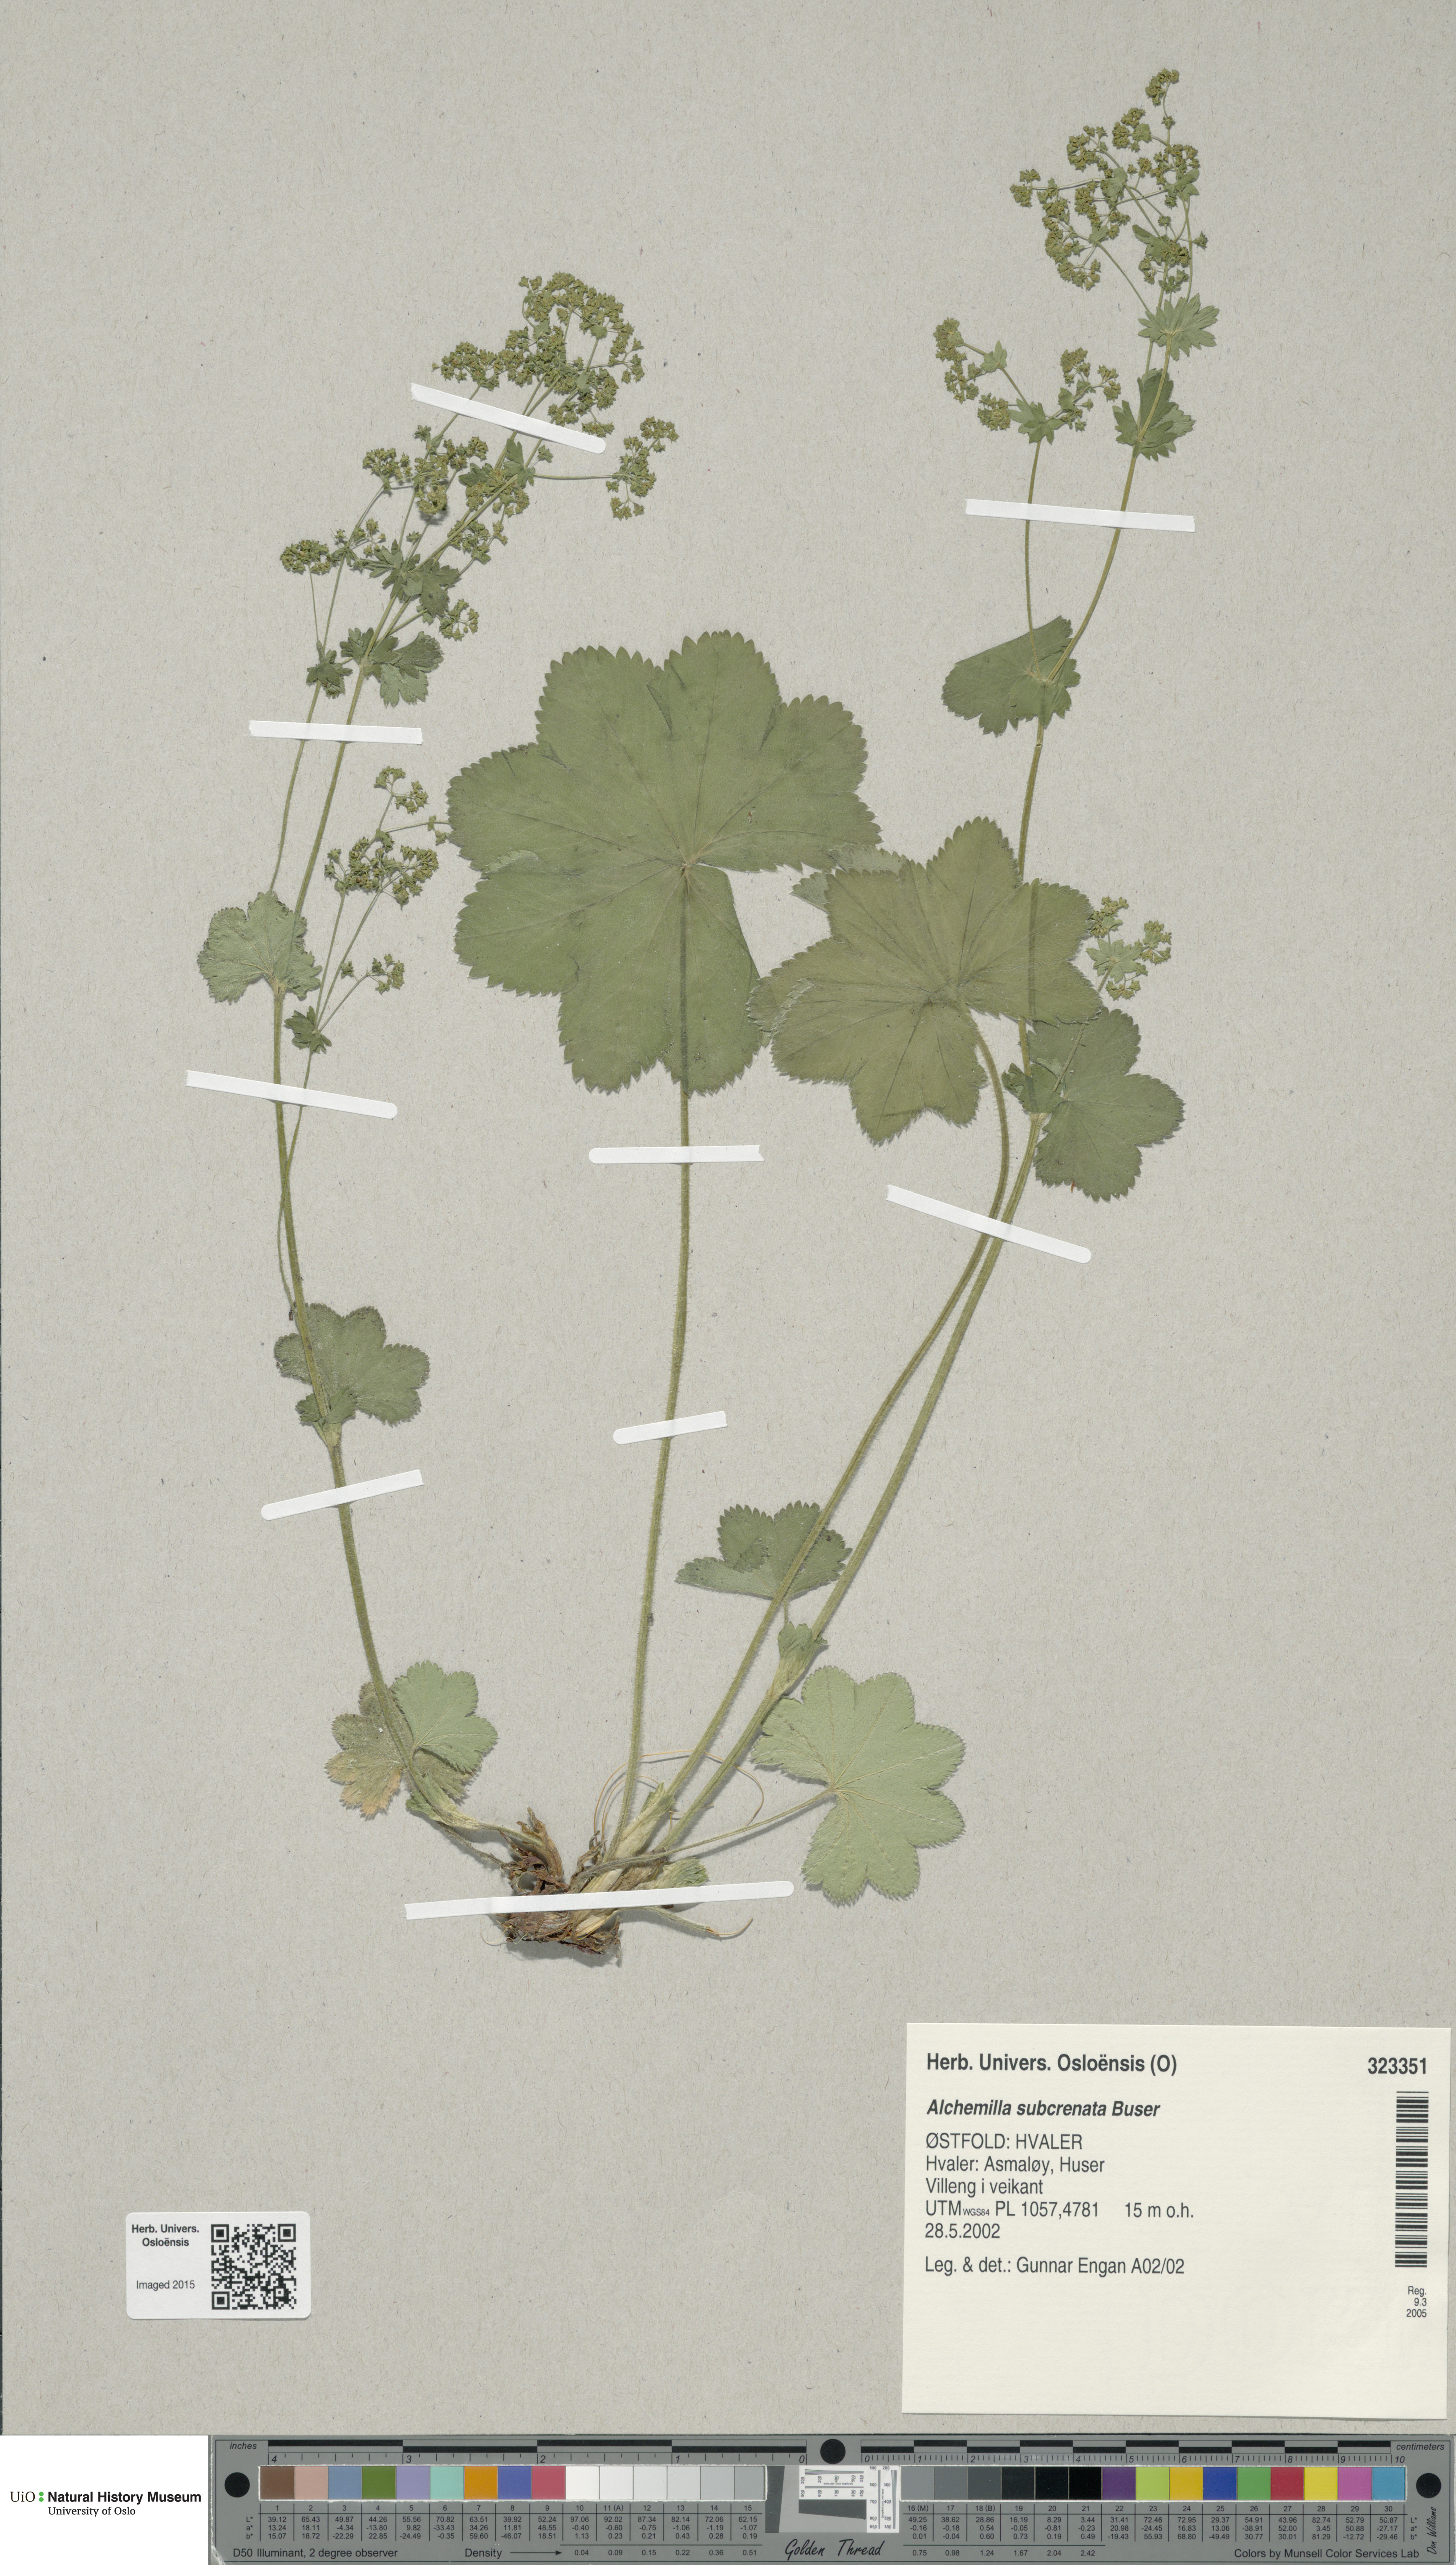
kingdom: Plantae
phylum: Tracheophyta
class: Magnoliopsida
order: Rosales
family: Rosaceae
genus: Alchemilla
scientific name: Alchemilla subcrenata
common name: Broadtooth lady's mantle
